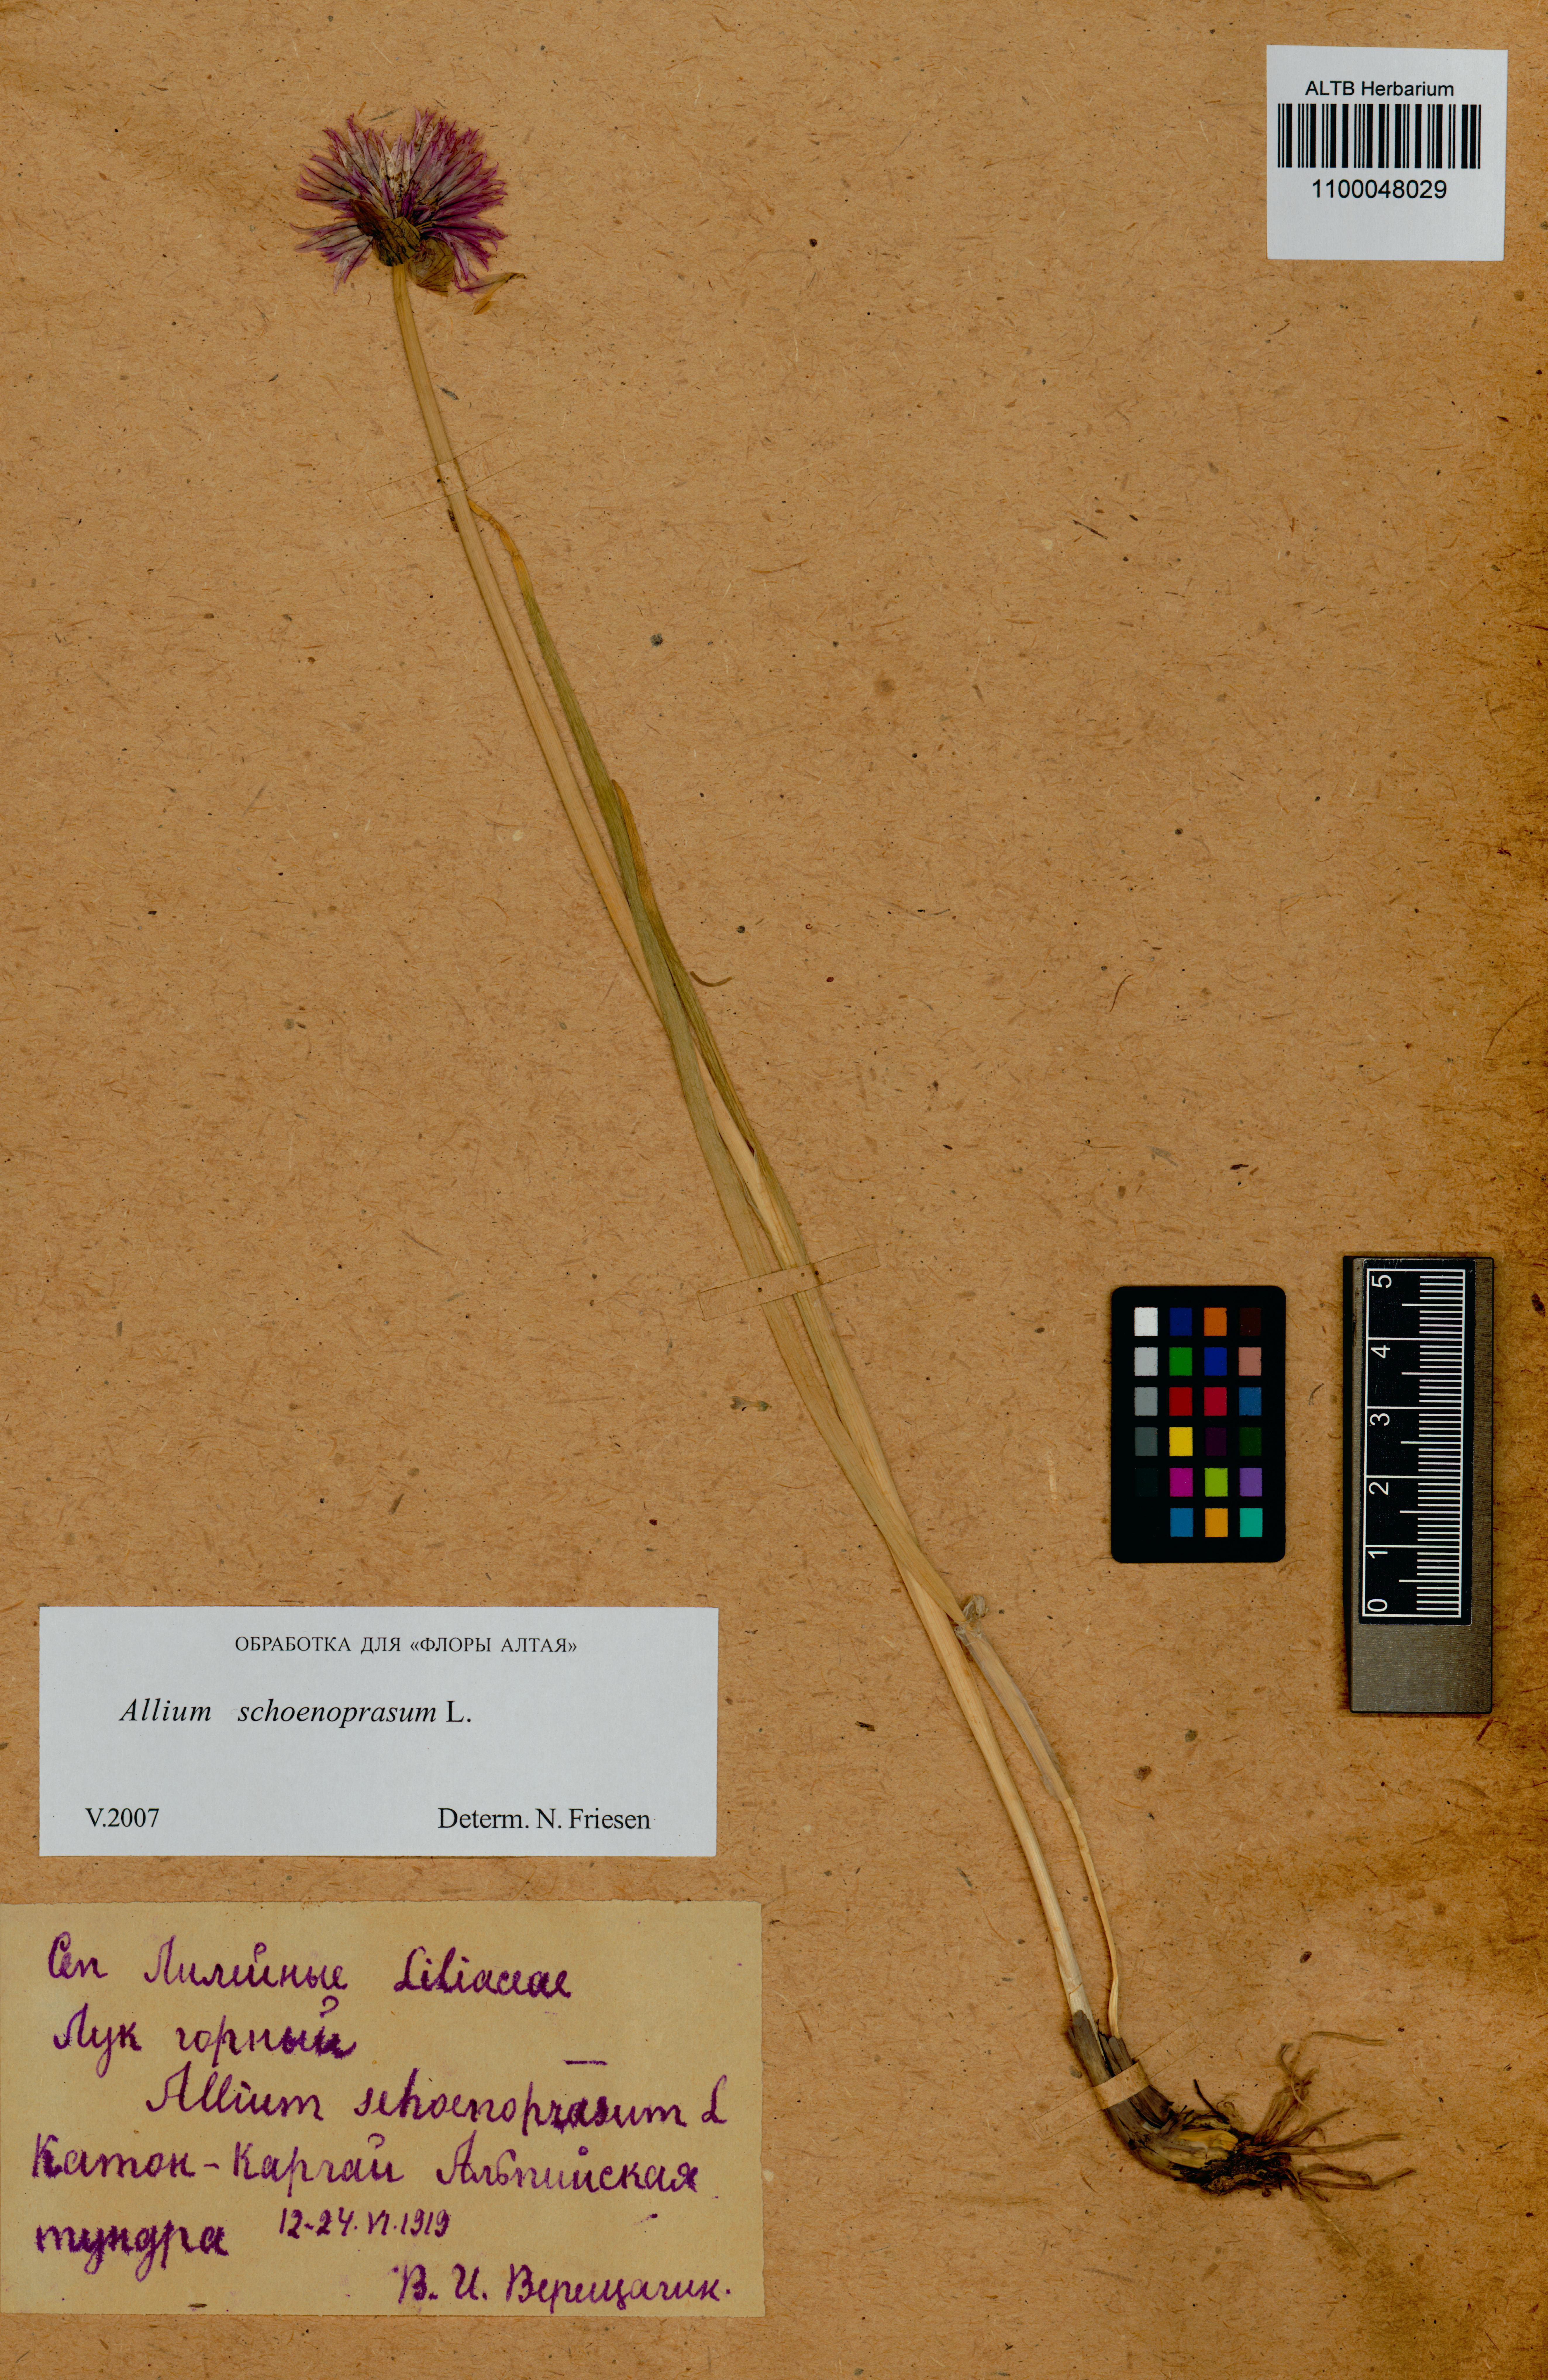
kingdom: Plantae
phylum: Tracheophyta
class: Liliopsida
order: Asparagales
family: Amaryllidaceae
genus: Allium
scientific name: Allium schoenoprasum
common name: Chives
